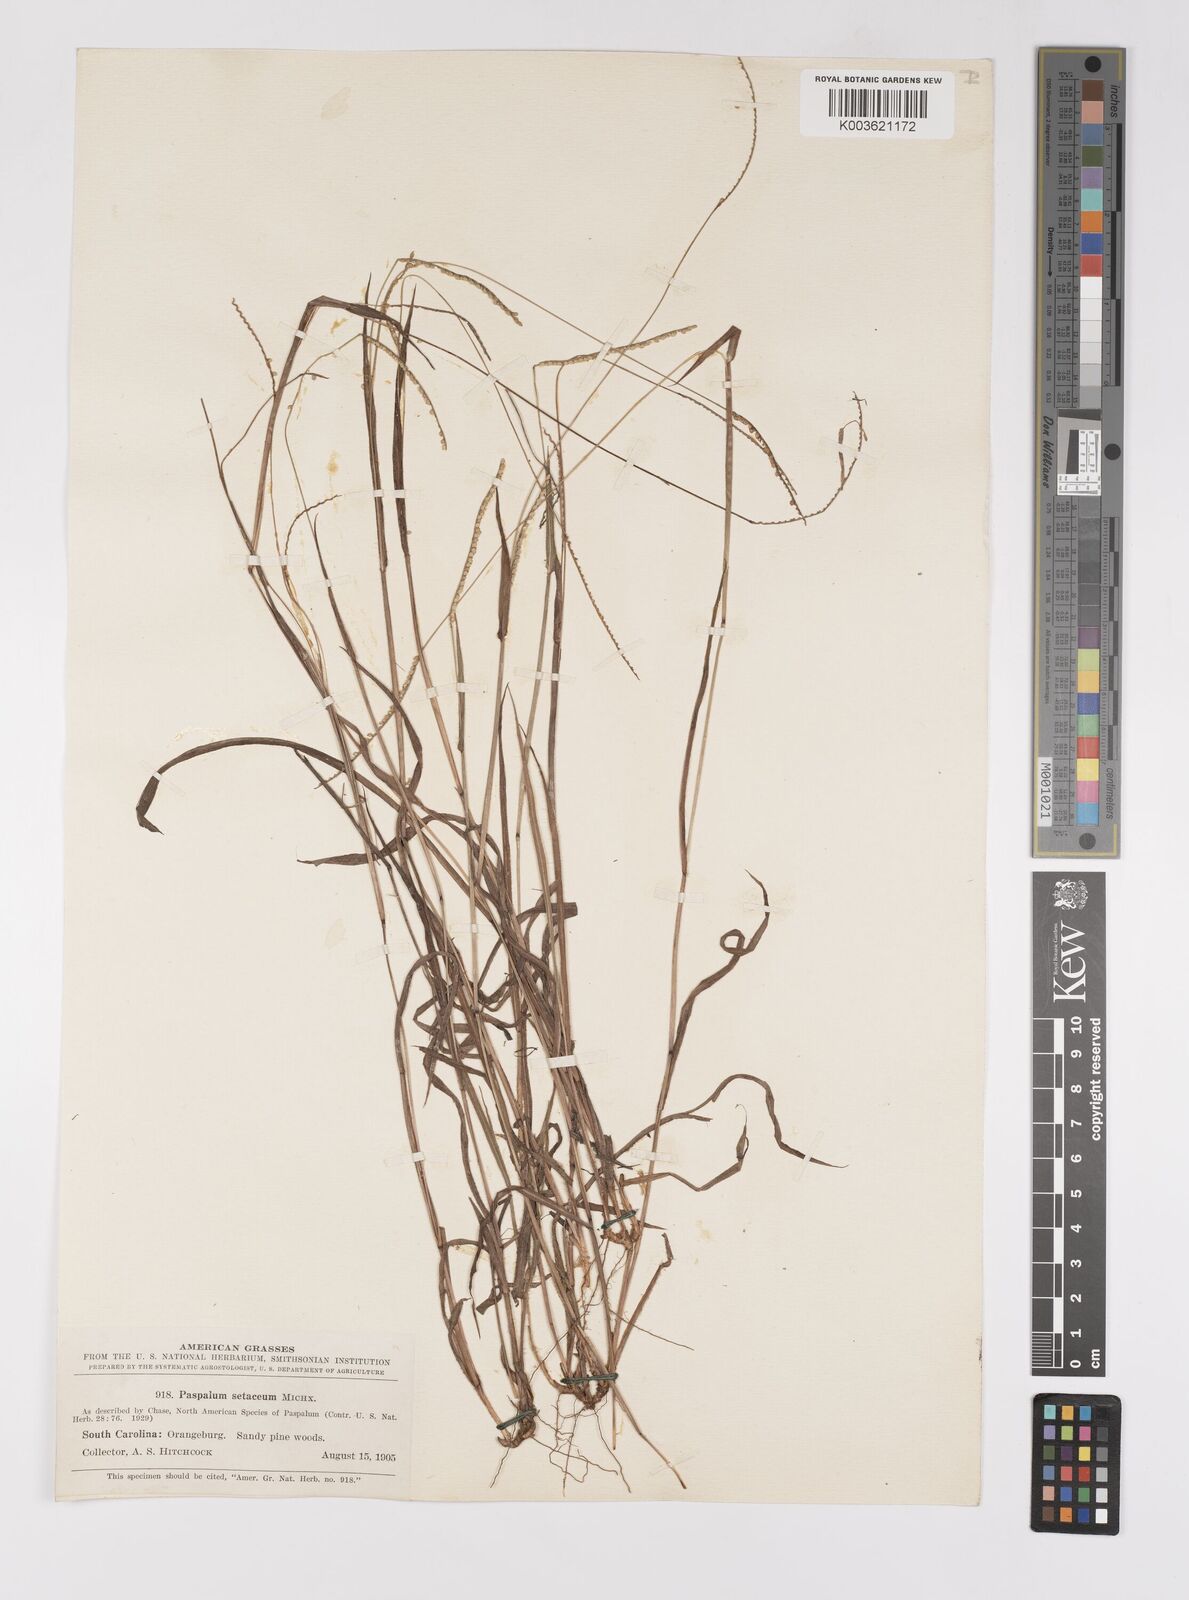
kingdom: Plantae
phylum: Tracheophyta
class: Liliopsida
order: Poales
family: Poaceae
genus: Paspalum
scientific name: Paspalum setaceum
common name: Slender paspalum
